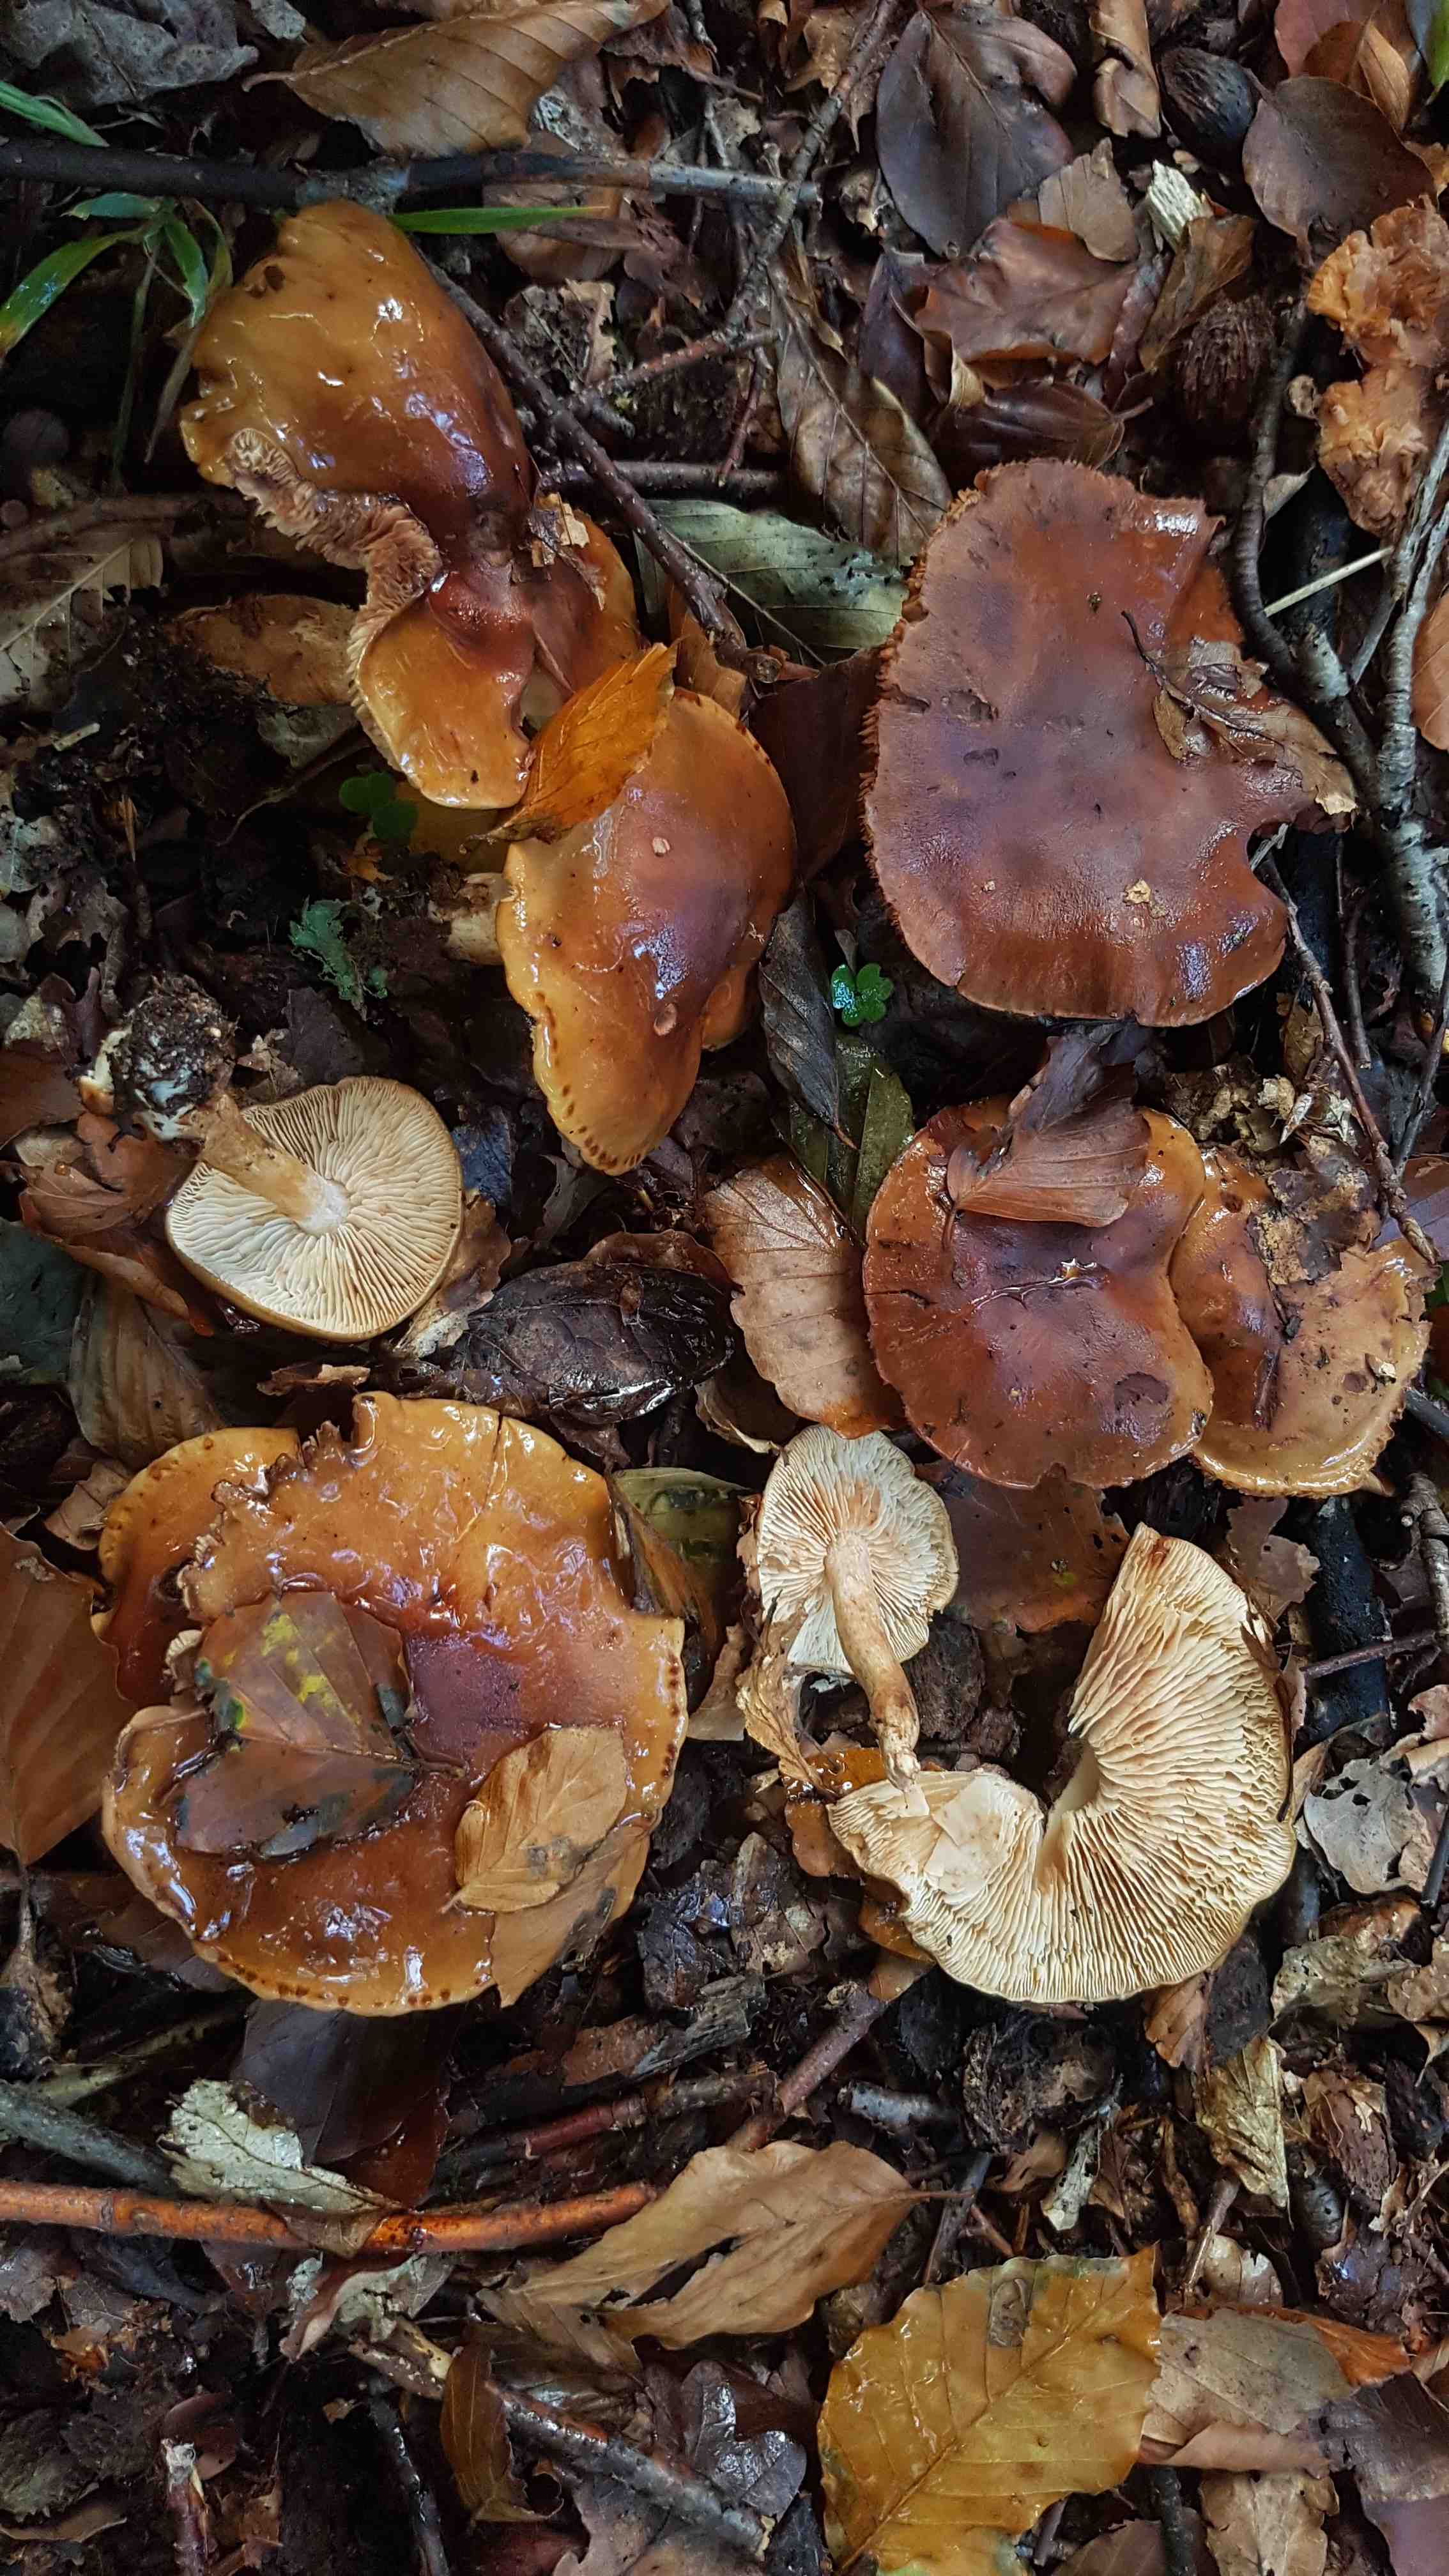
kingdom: Fungi
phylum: Basidiomycota
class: Agaricomycetes
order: Agaricales
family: Tricholomataceae
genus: Tricholoma
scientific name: Tricholoma ustale
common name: sveden ridderhat
